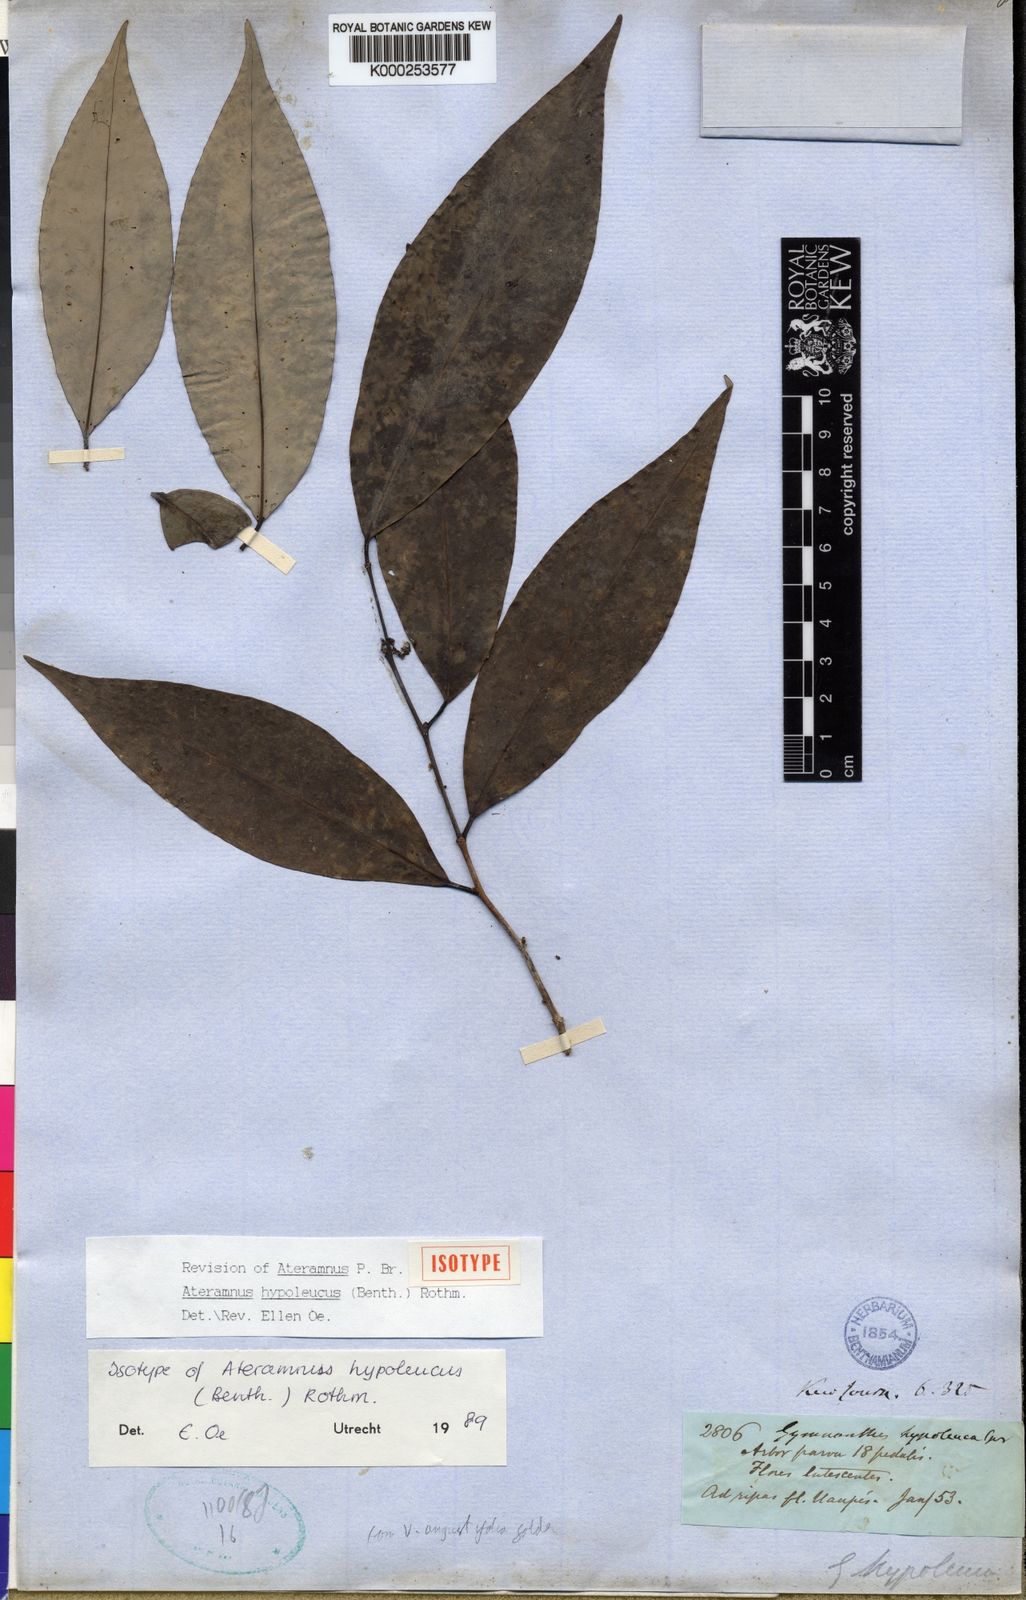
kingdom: Plantae
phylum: Tracheophyta
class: Magnoliopsida
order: Malpighiales
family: Euphorbiaceae
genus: Gymnanthes
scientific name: Gymnanthes hypoleuca
